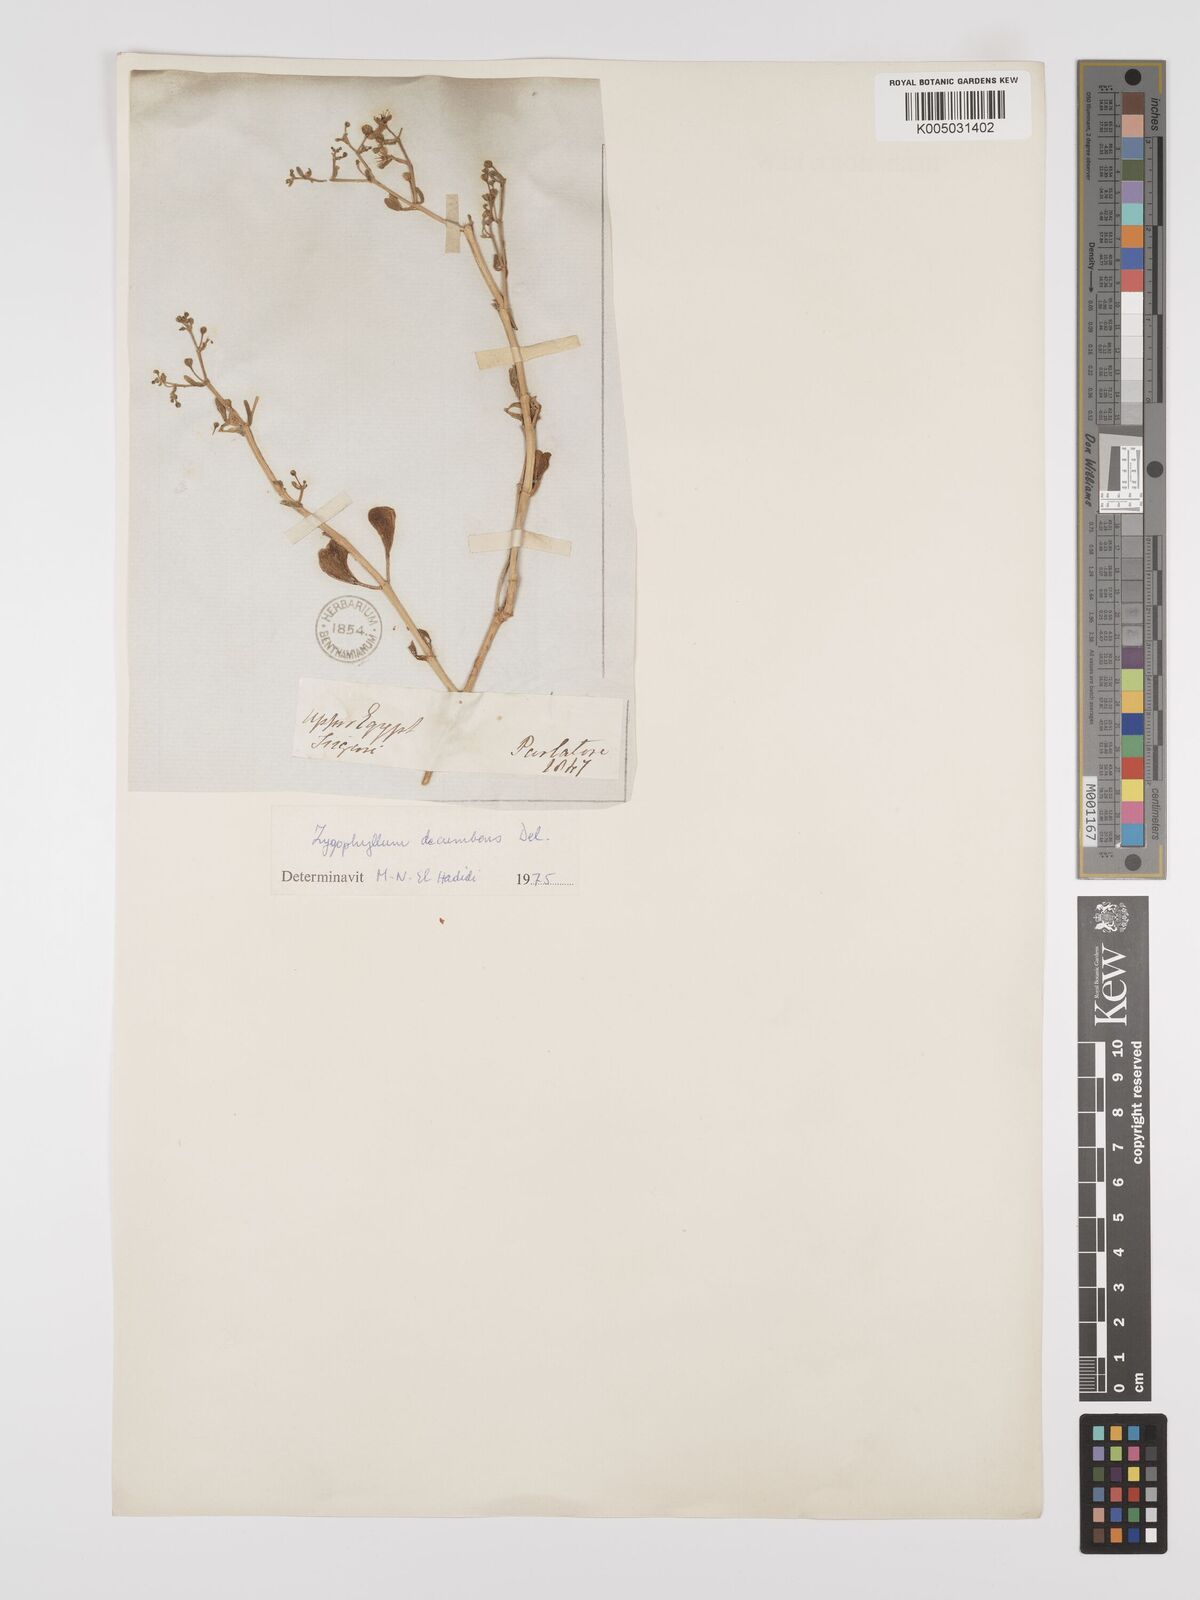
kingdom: Plantae
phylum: Tracheophyta
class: Magnoliopsida
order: Zygophyllales
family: Zygophyllaceae
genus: Tetraena
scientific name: Tetraena decumbens
